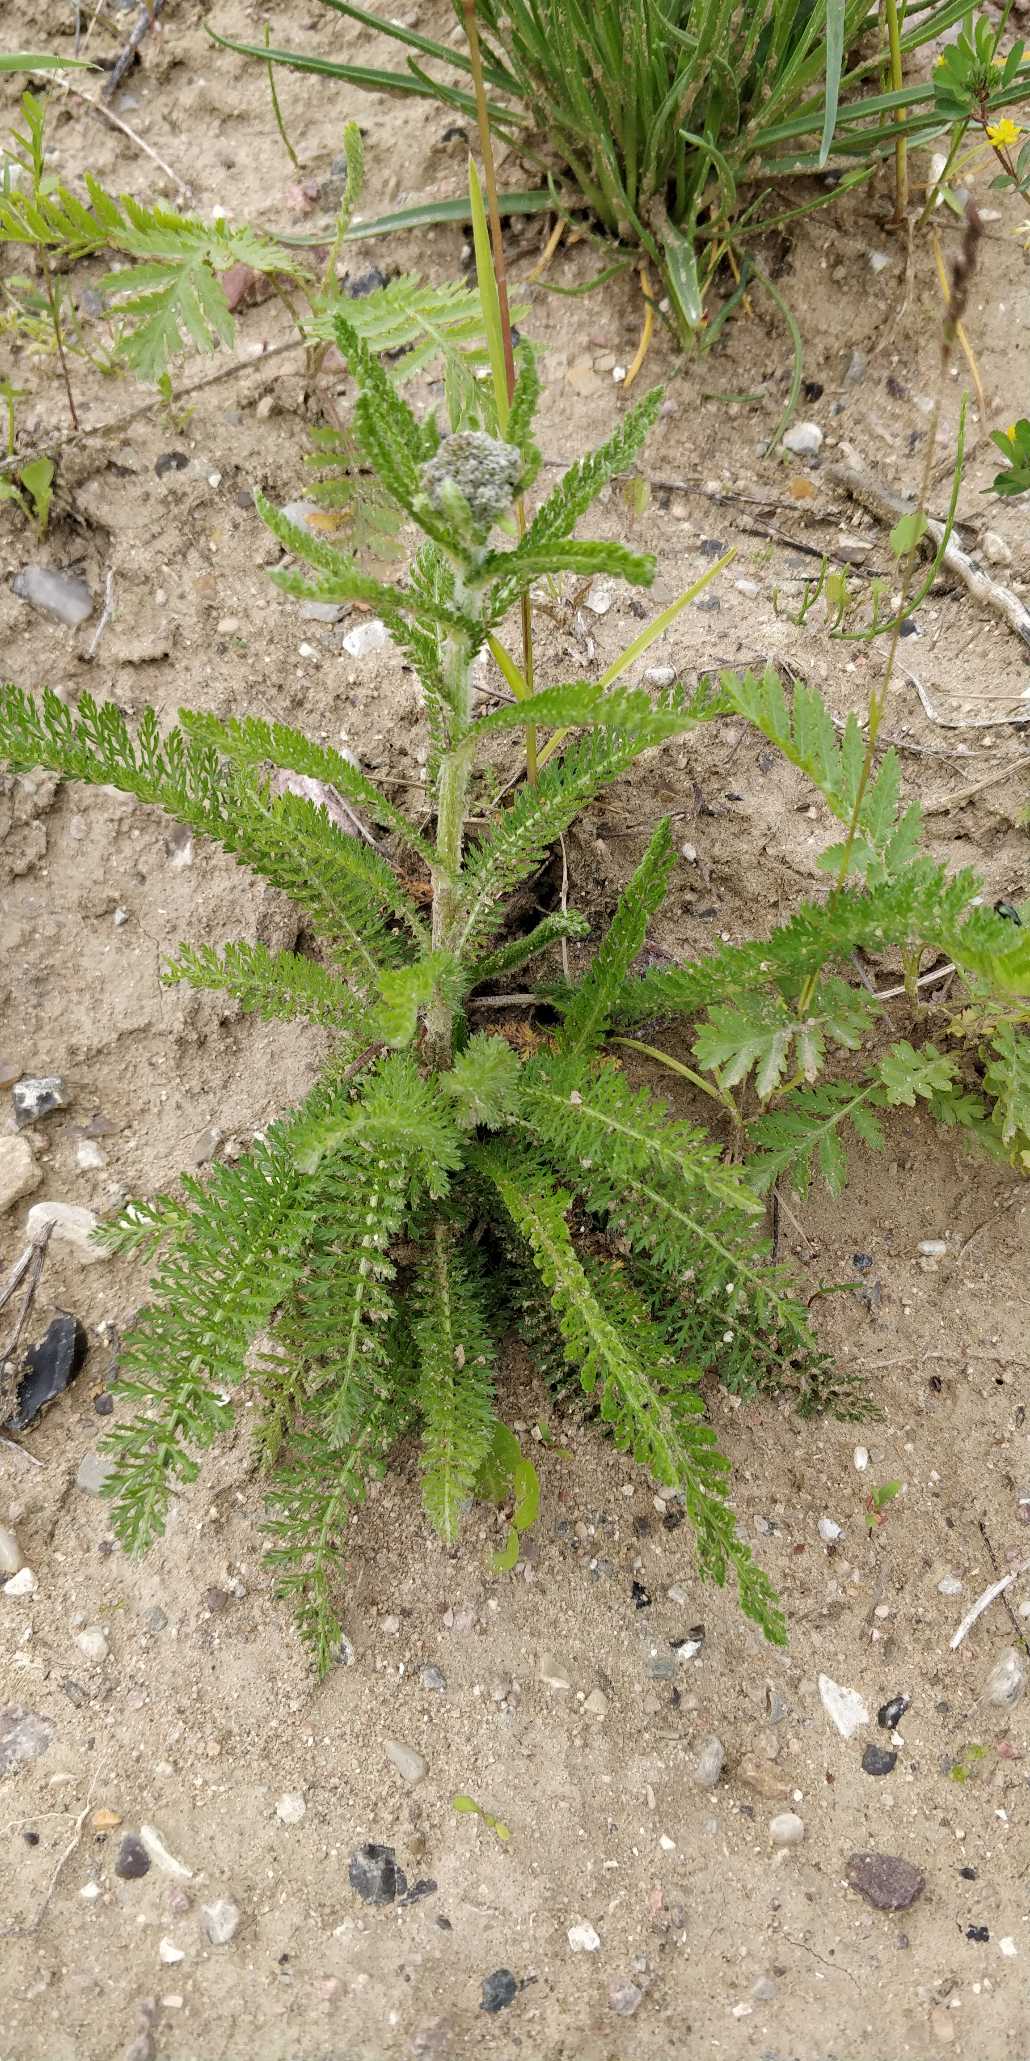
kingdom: Plantae
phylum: Tracheophyta
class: Magnoliopsida
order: Asterales
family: Asteraceae
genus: Achillea
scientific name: Achillea millefolium
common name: Almindelig røllike
